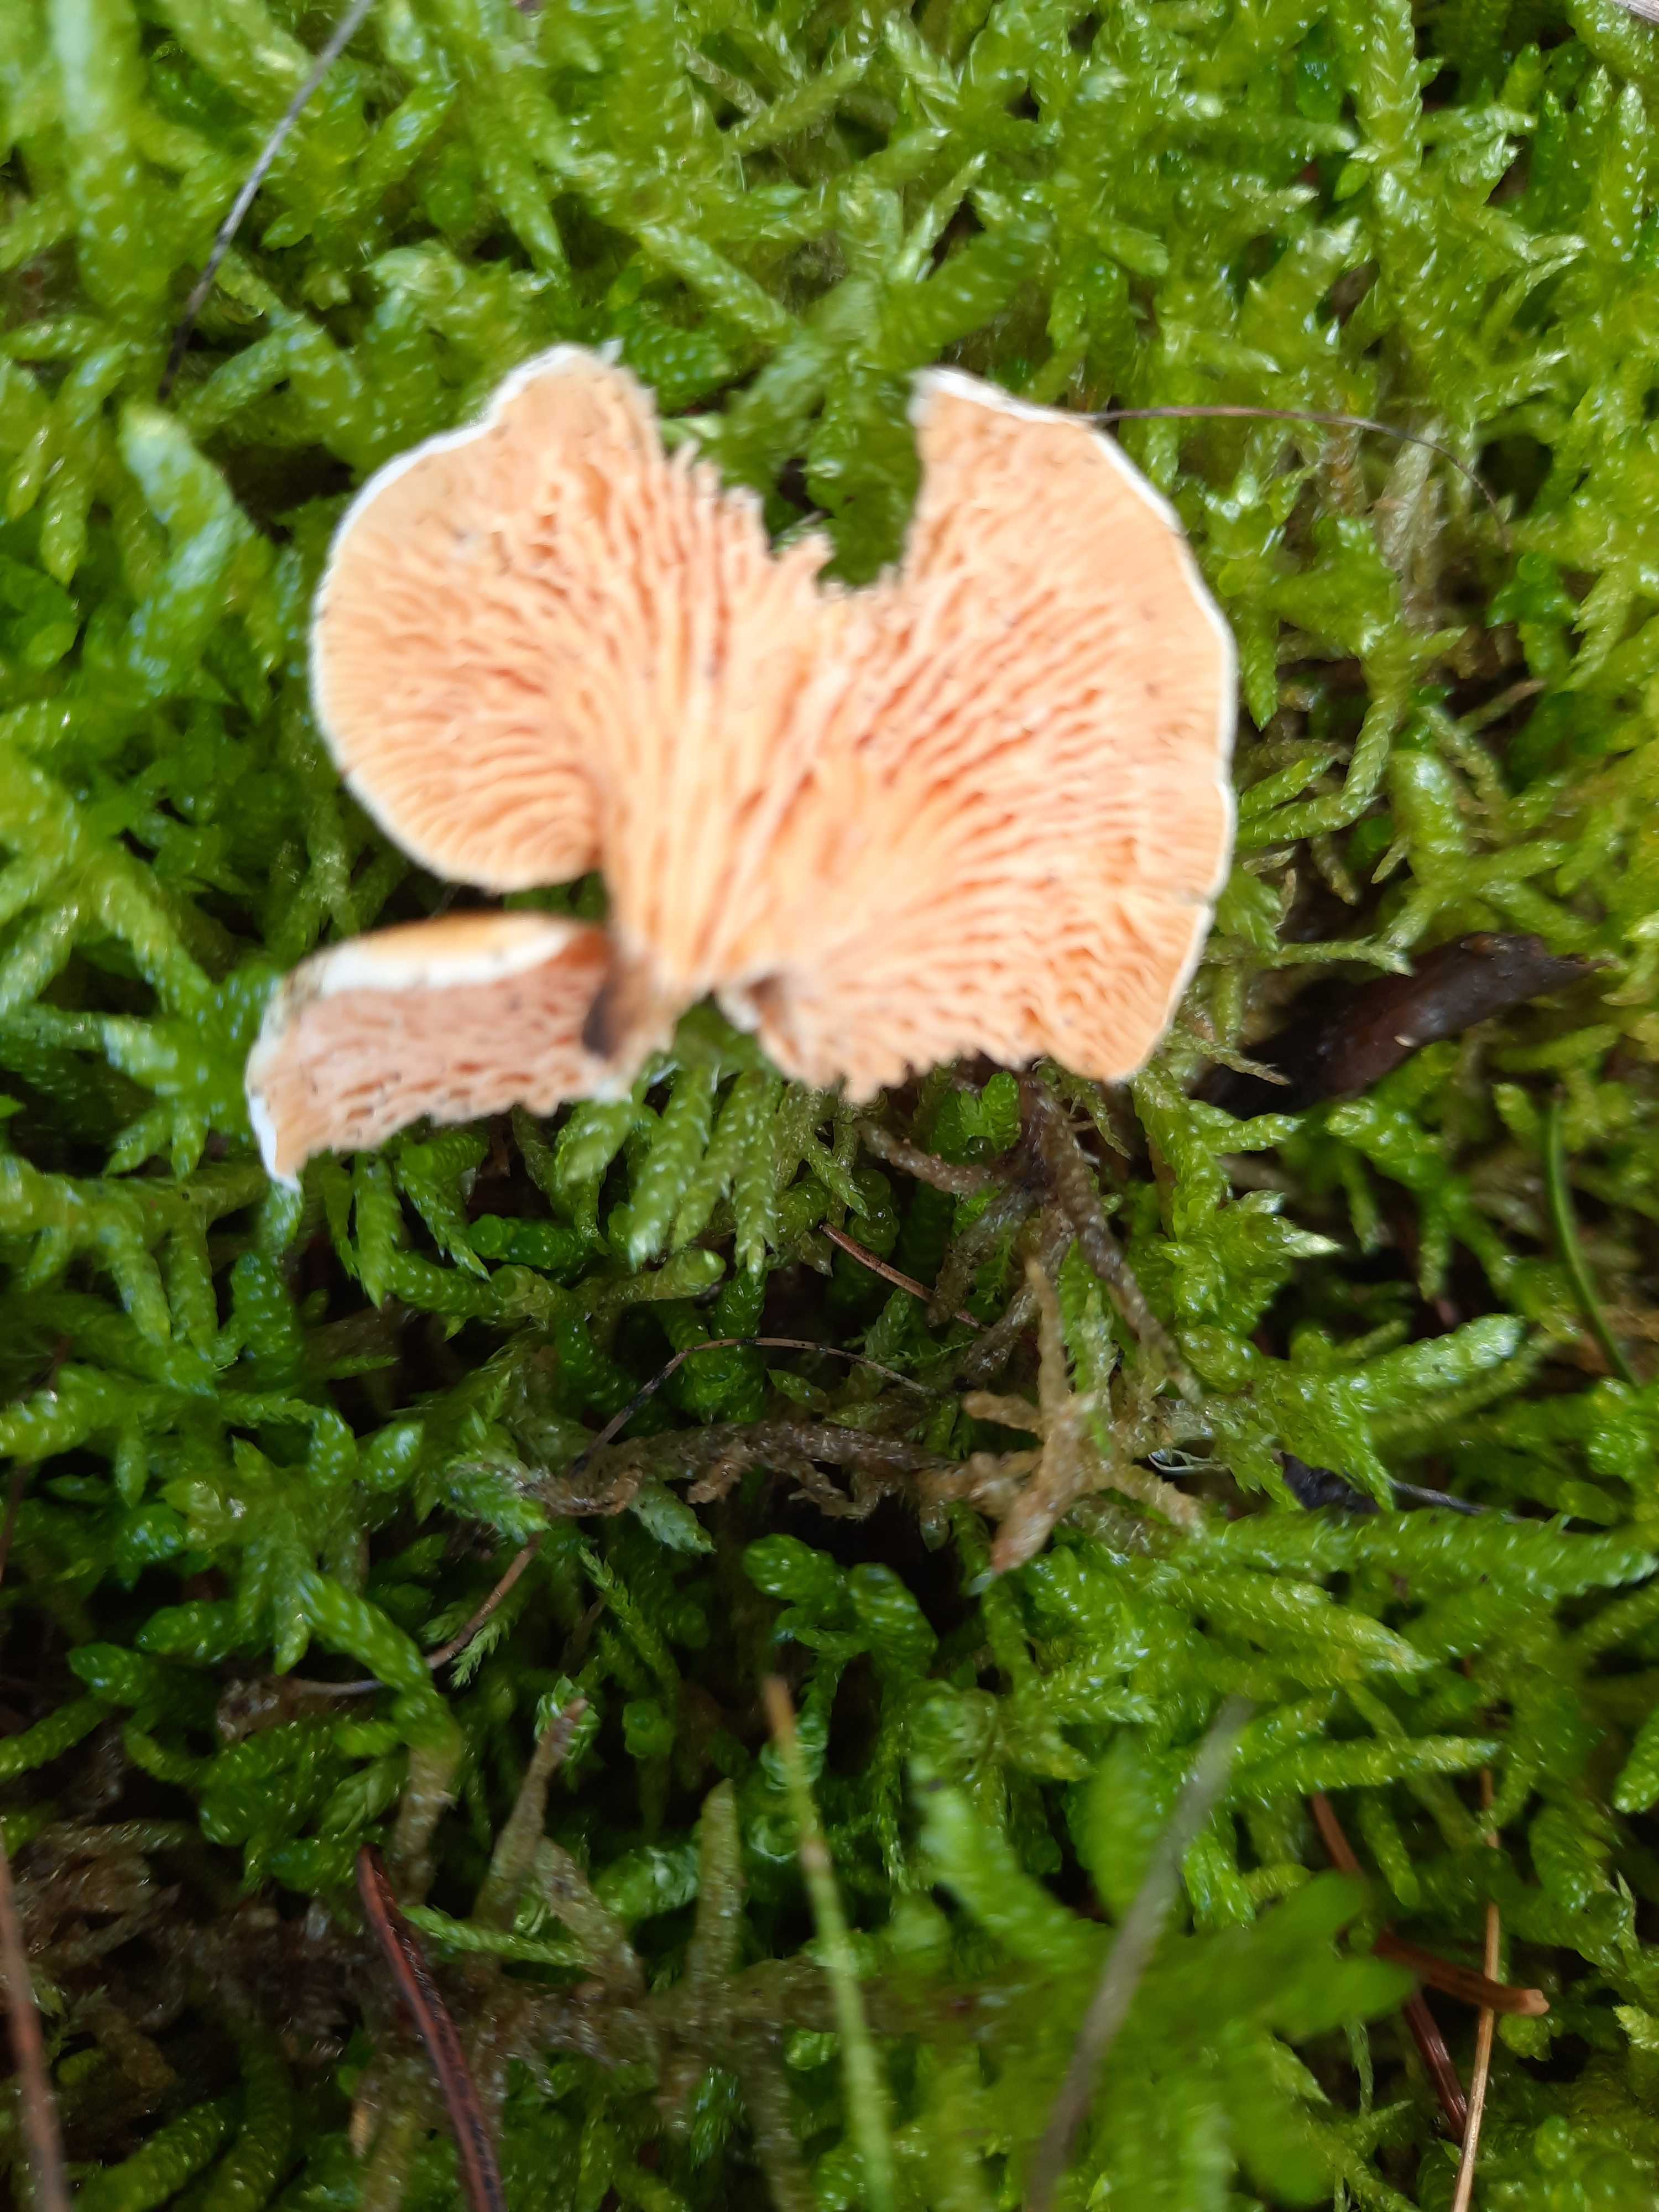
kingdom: Fungi
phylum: Basidiomycota
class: Agaricomycetes
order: Boletales
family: Hygrophoropsidaceae
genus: Hygrophoropsis
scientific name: Hygrophoropsis aurantiaca
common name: almindelig orangekantarel
